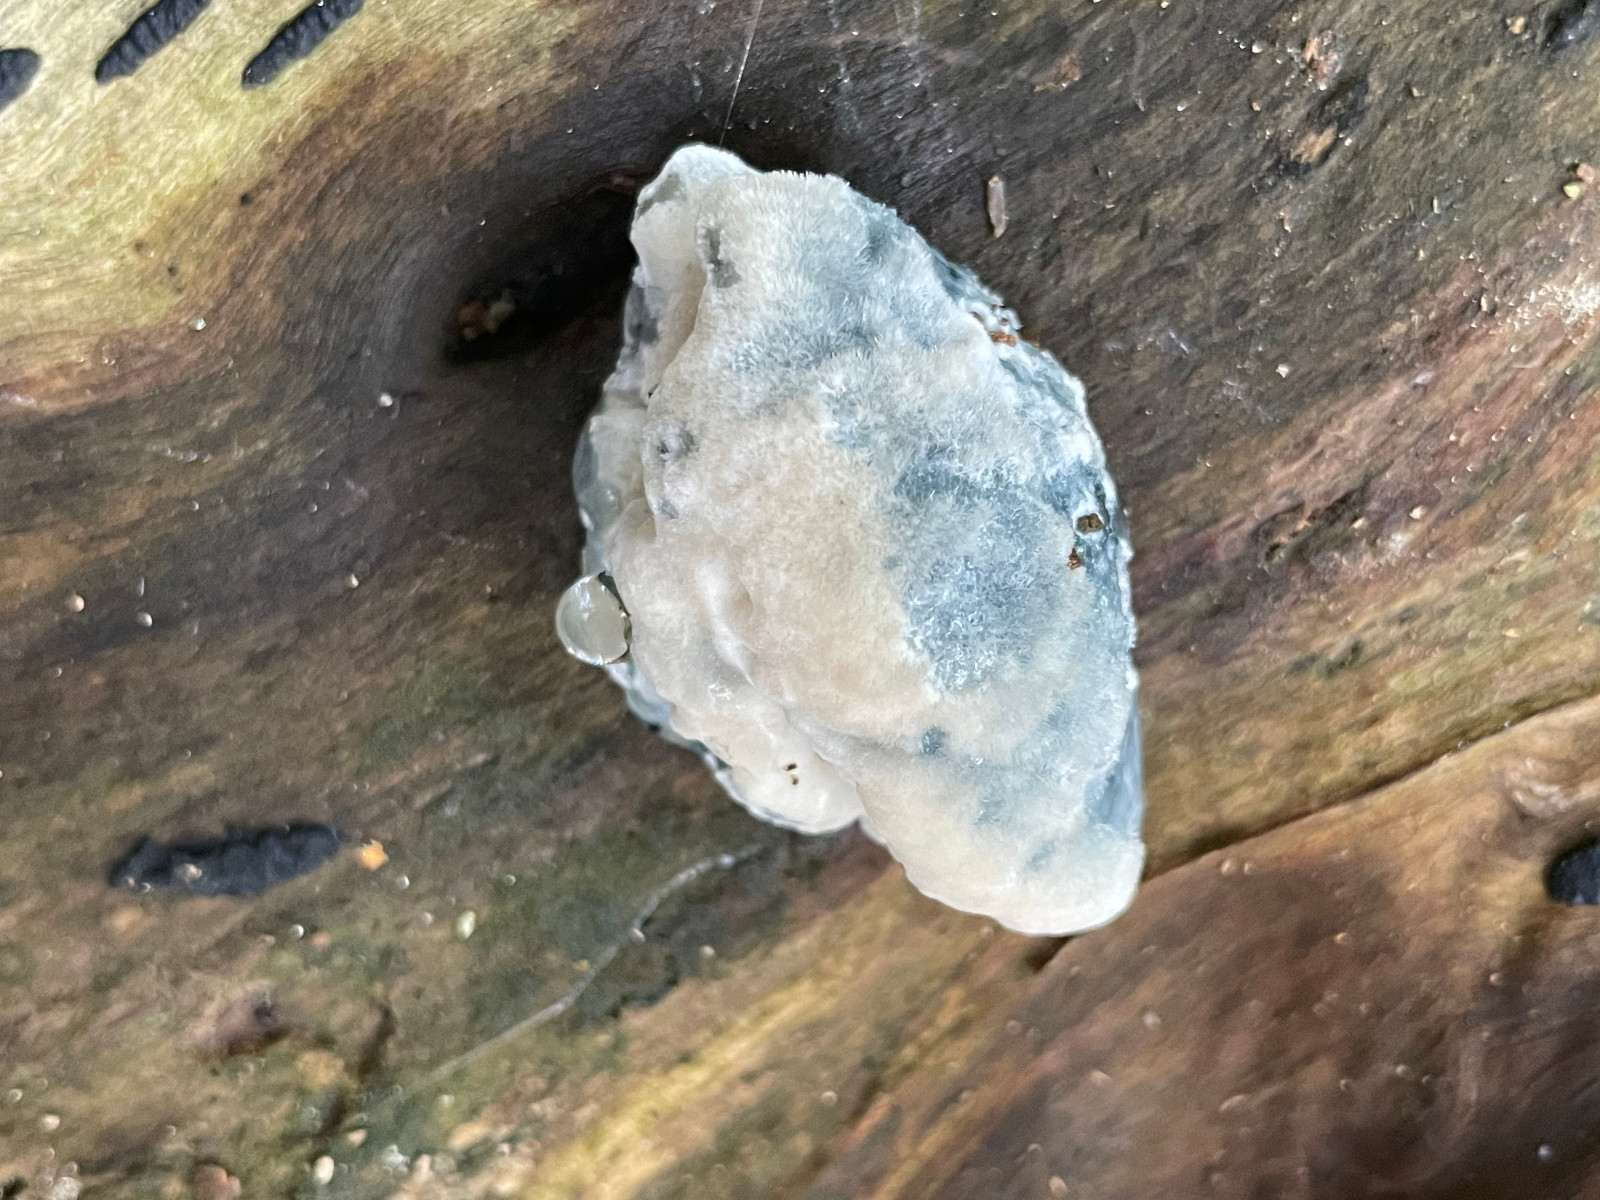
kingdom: Fungi
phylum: Basidiomycota
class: Agaricomycetes
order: Polyporales
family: Polyporaceae
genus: Cyanosporus
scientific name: Cyanosporus caesius
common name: blålig kødporesvamp
